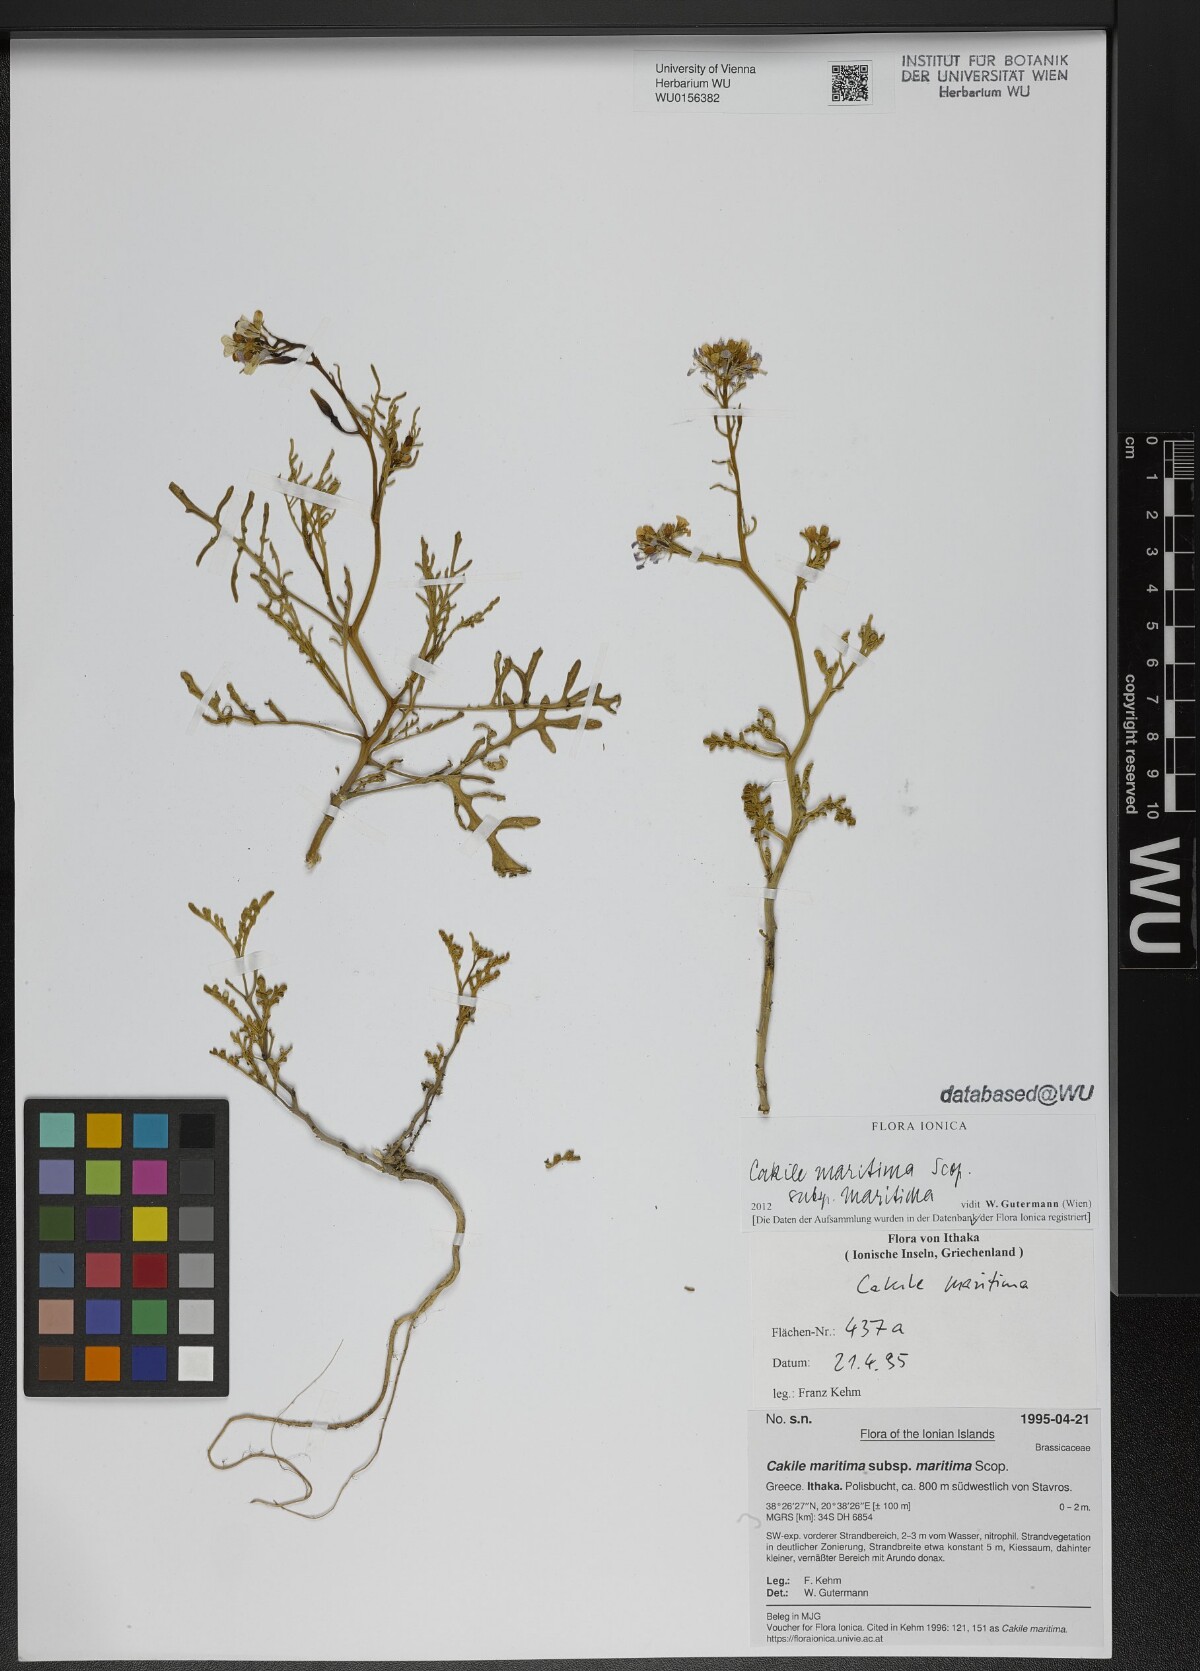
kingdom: Plantae
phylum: Tracheophyta
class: Magnoliopsida
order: Brassicales
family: Brassicaceae
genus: Cakile
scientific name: Cakile maritima
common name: Sea rocket
